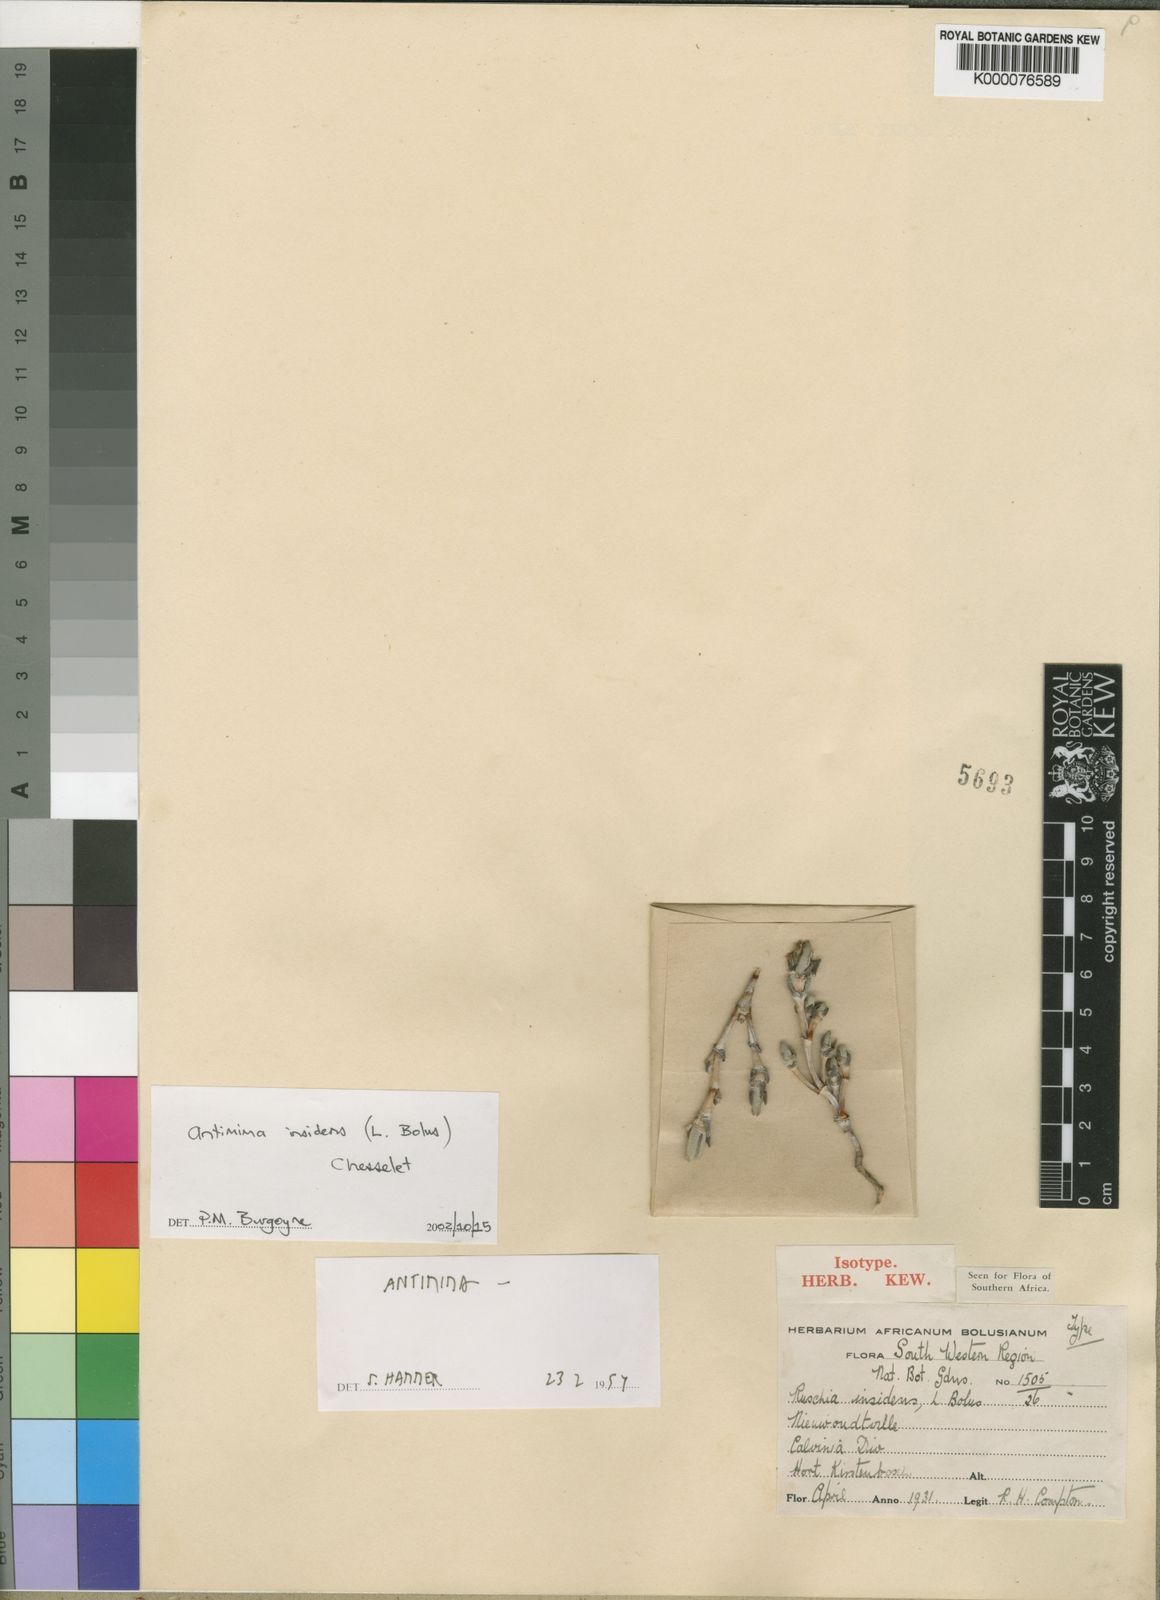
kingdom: Plantae
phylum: Tracheophyta
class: Magnoliopsida
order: Caryophyllales
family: Aizoaceae
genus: Antimima
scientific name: Antimima insidens
